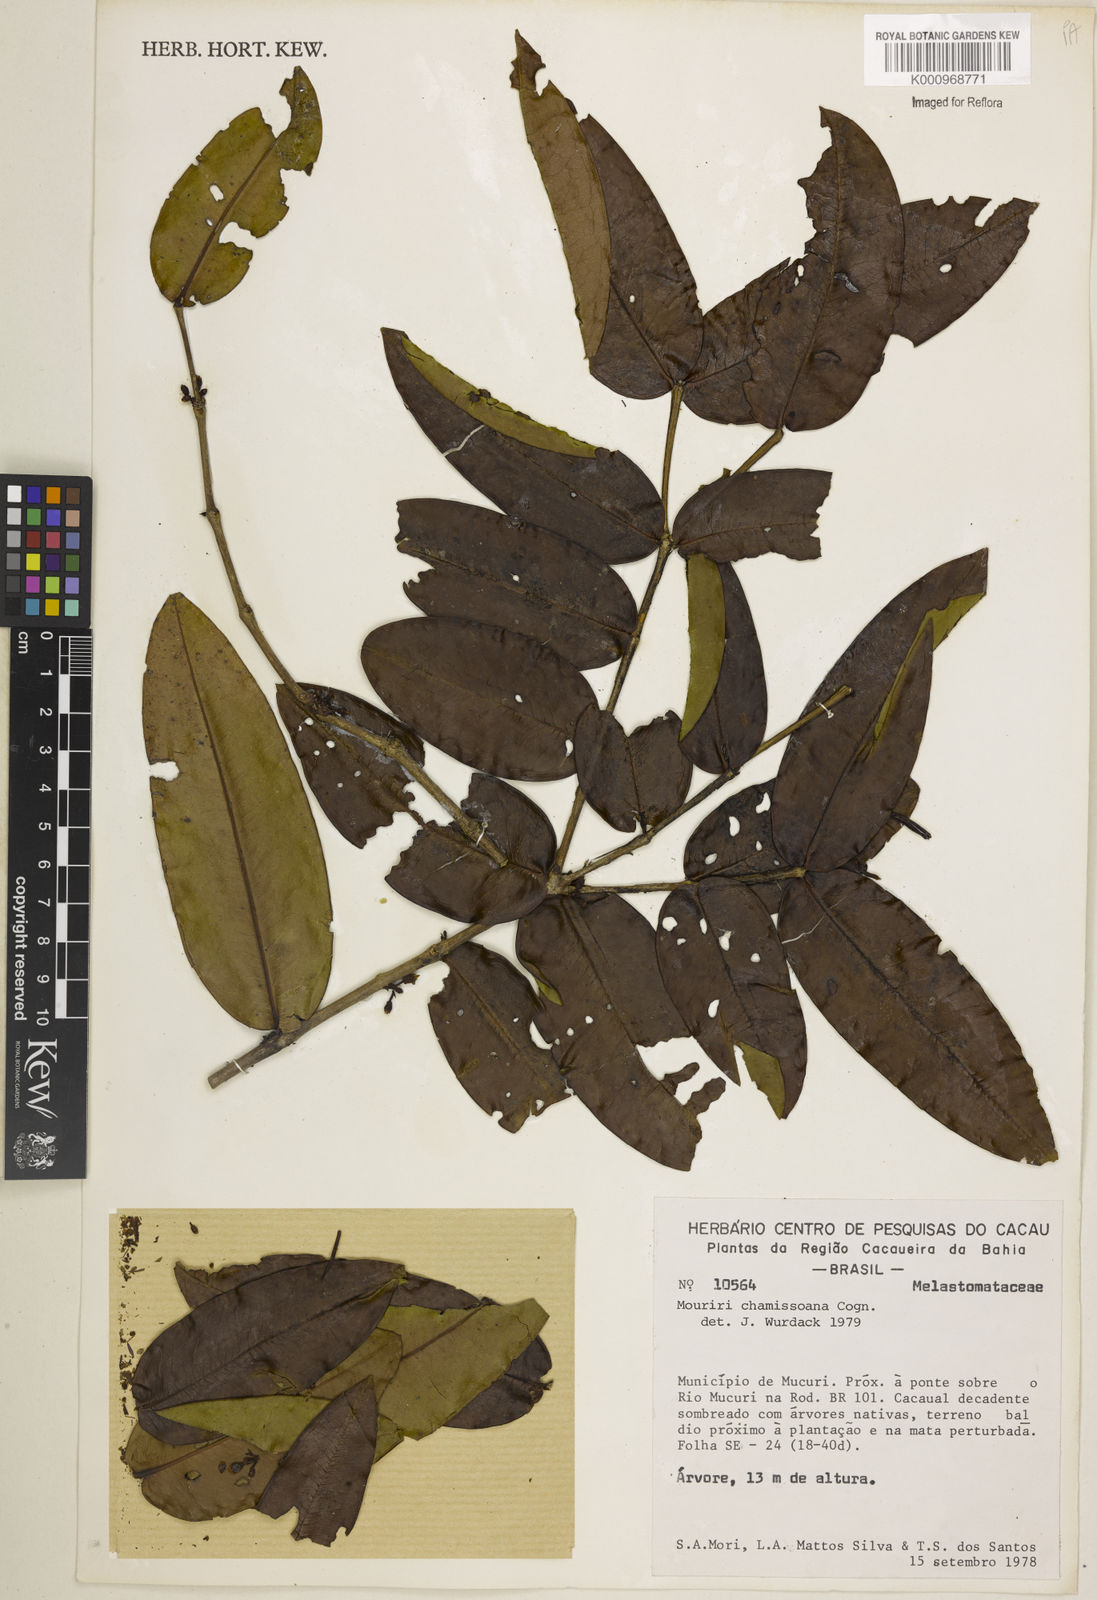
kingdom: Plantae
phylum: Tracheophyta
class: Magnoliopsida
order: Myrtales
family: Melastomataceae
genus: Mouriri
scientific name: Mouriri chamissoana
